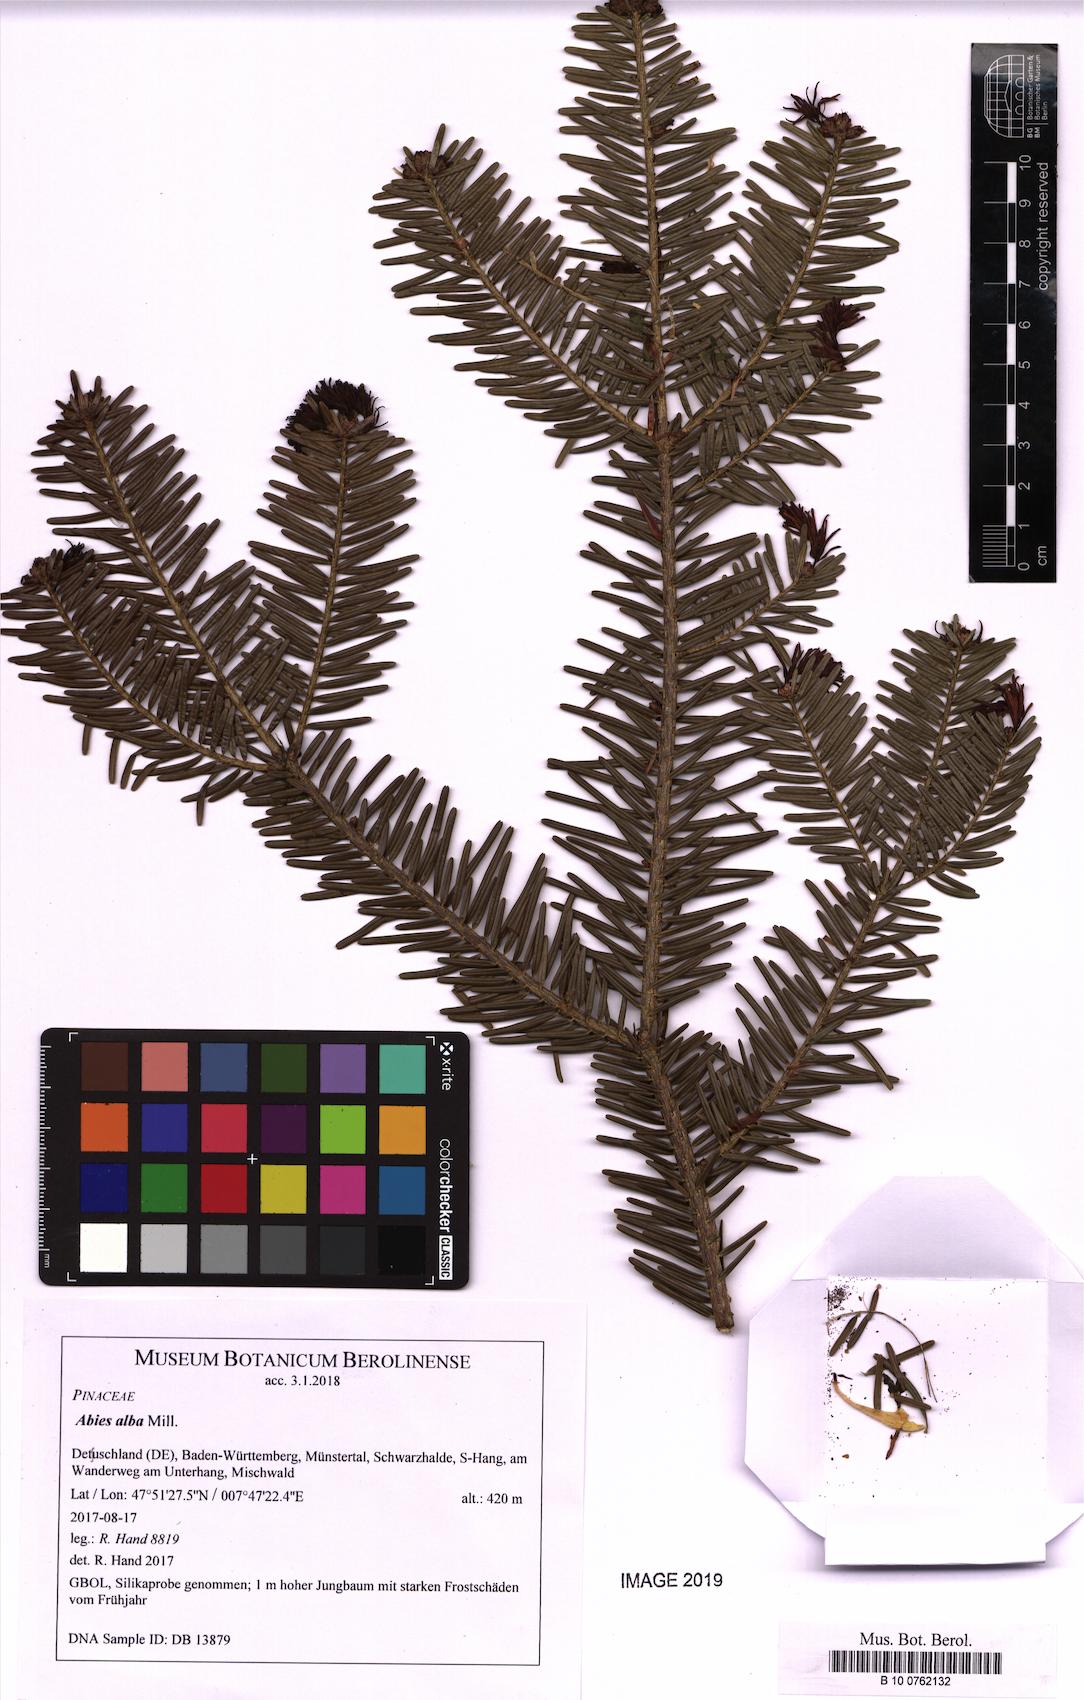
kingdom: Plantae
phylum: Tracheophyta
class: Pinopsida
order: Pinales
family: Pinaceae
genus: Abies
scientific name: Abies alba
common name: Silver fir
